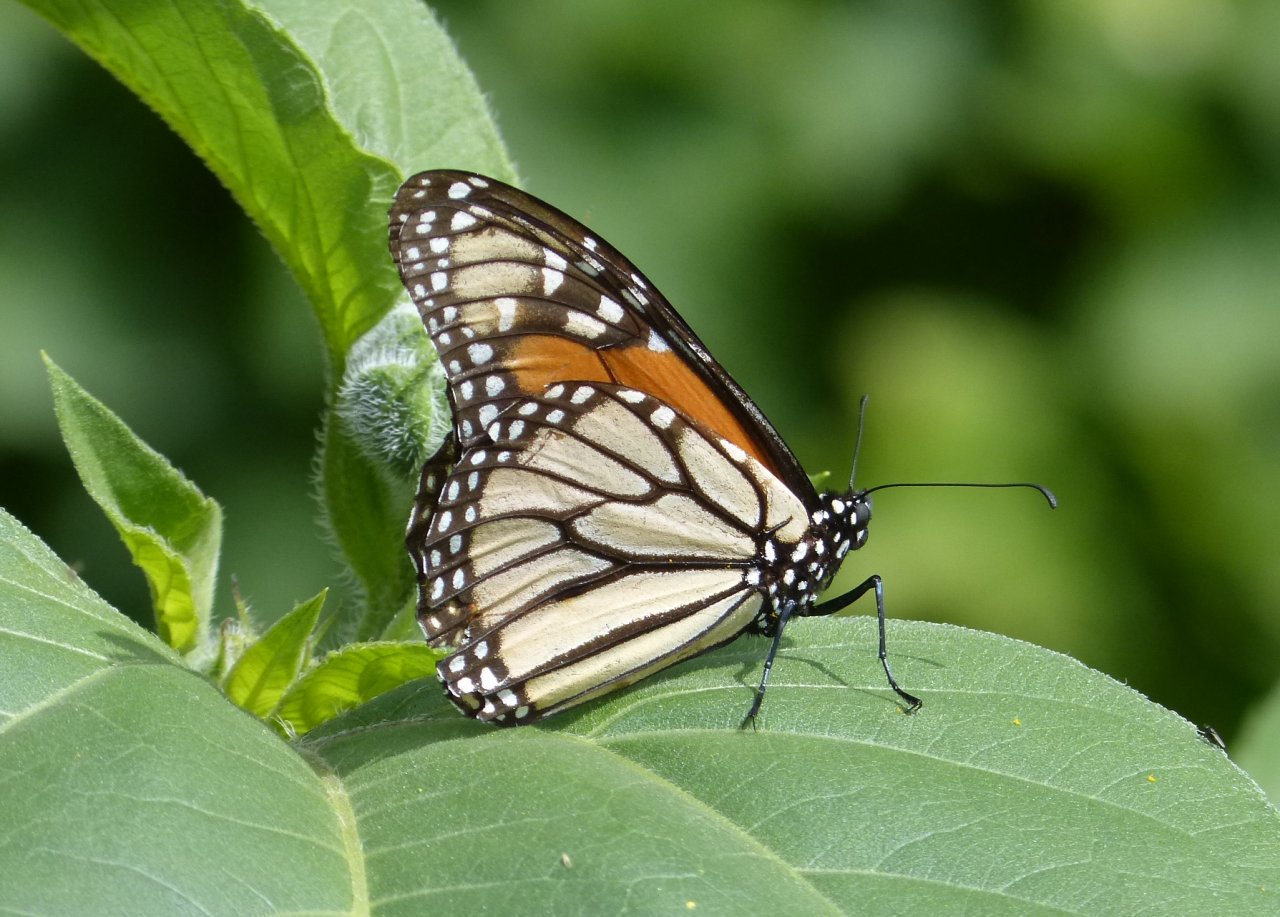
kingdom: Animalia
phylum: Arthropoda
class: Insecta
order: Lepidoptera
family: Nymphalidae
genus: Danaus
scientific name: Danaus plexippus
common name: Monarch
